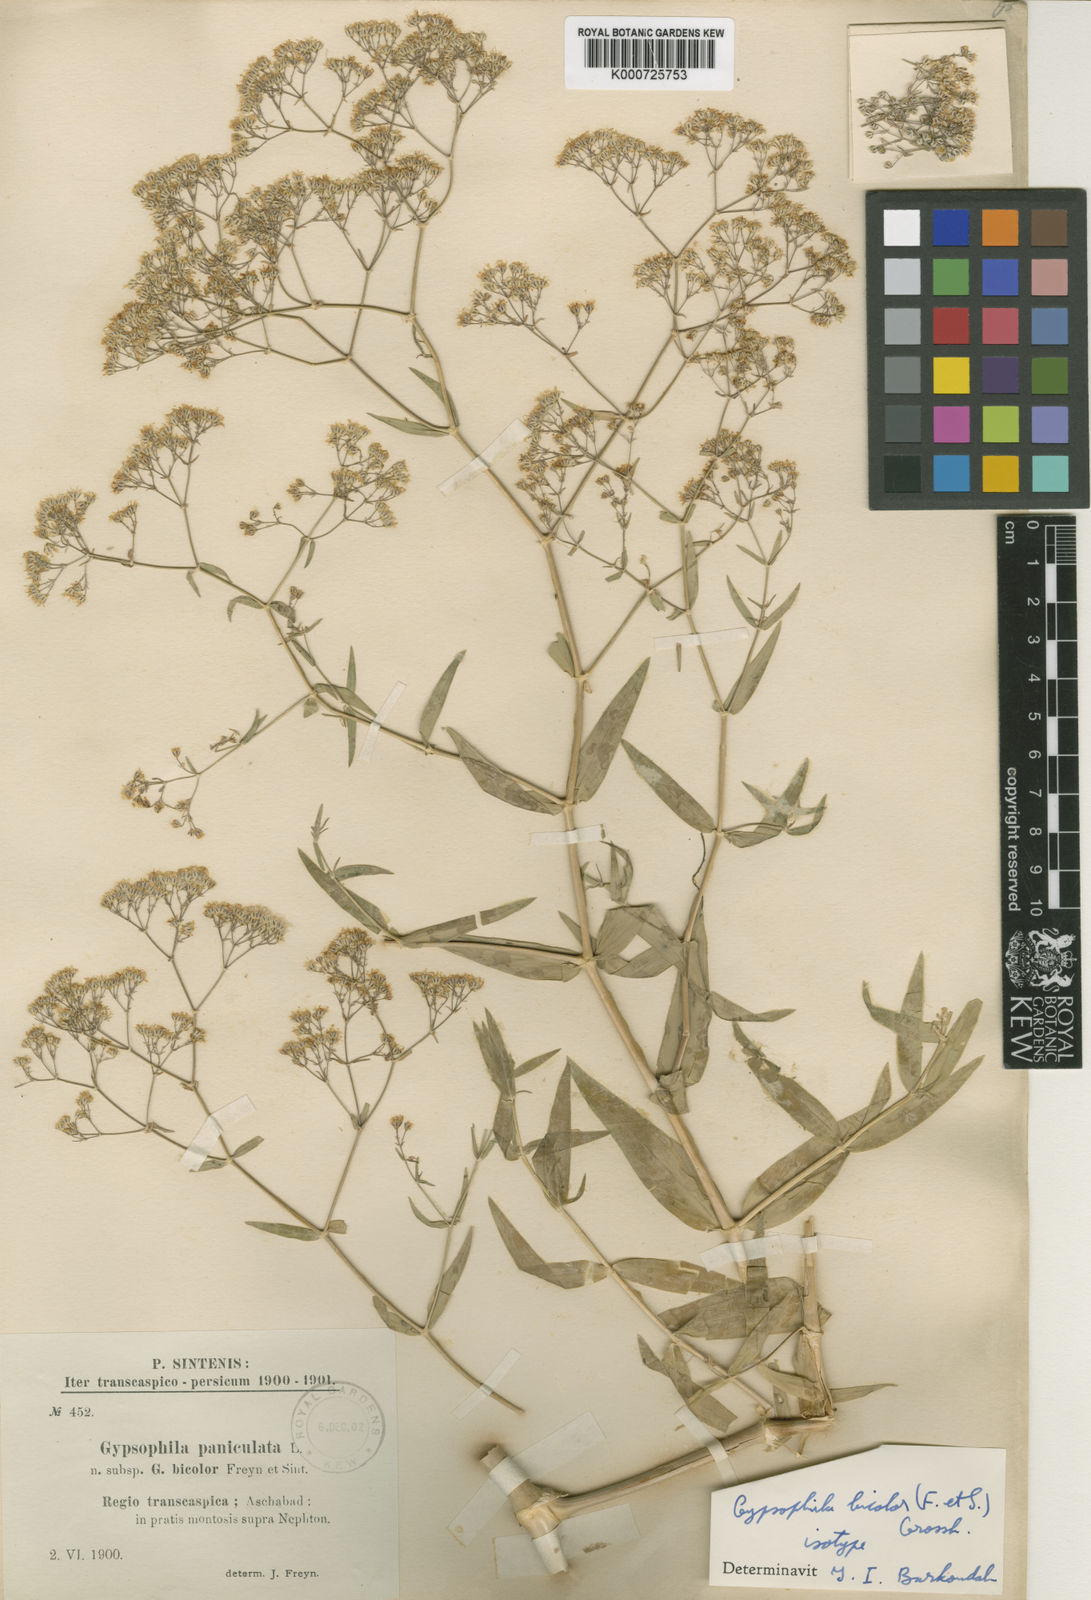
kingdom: Plantae
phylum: Tracheophyta
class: Magnoliopsida
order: Caryophyllales
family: Caryophyllaceae
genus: Gypsophila
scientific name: Gypsophila bicolor
